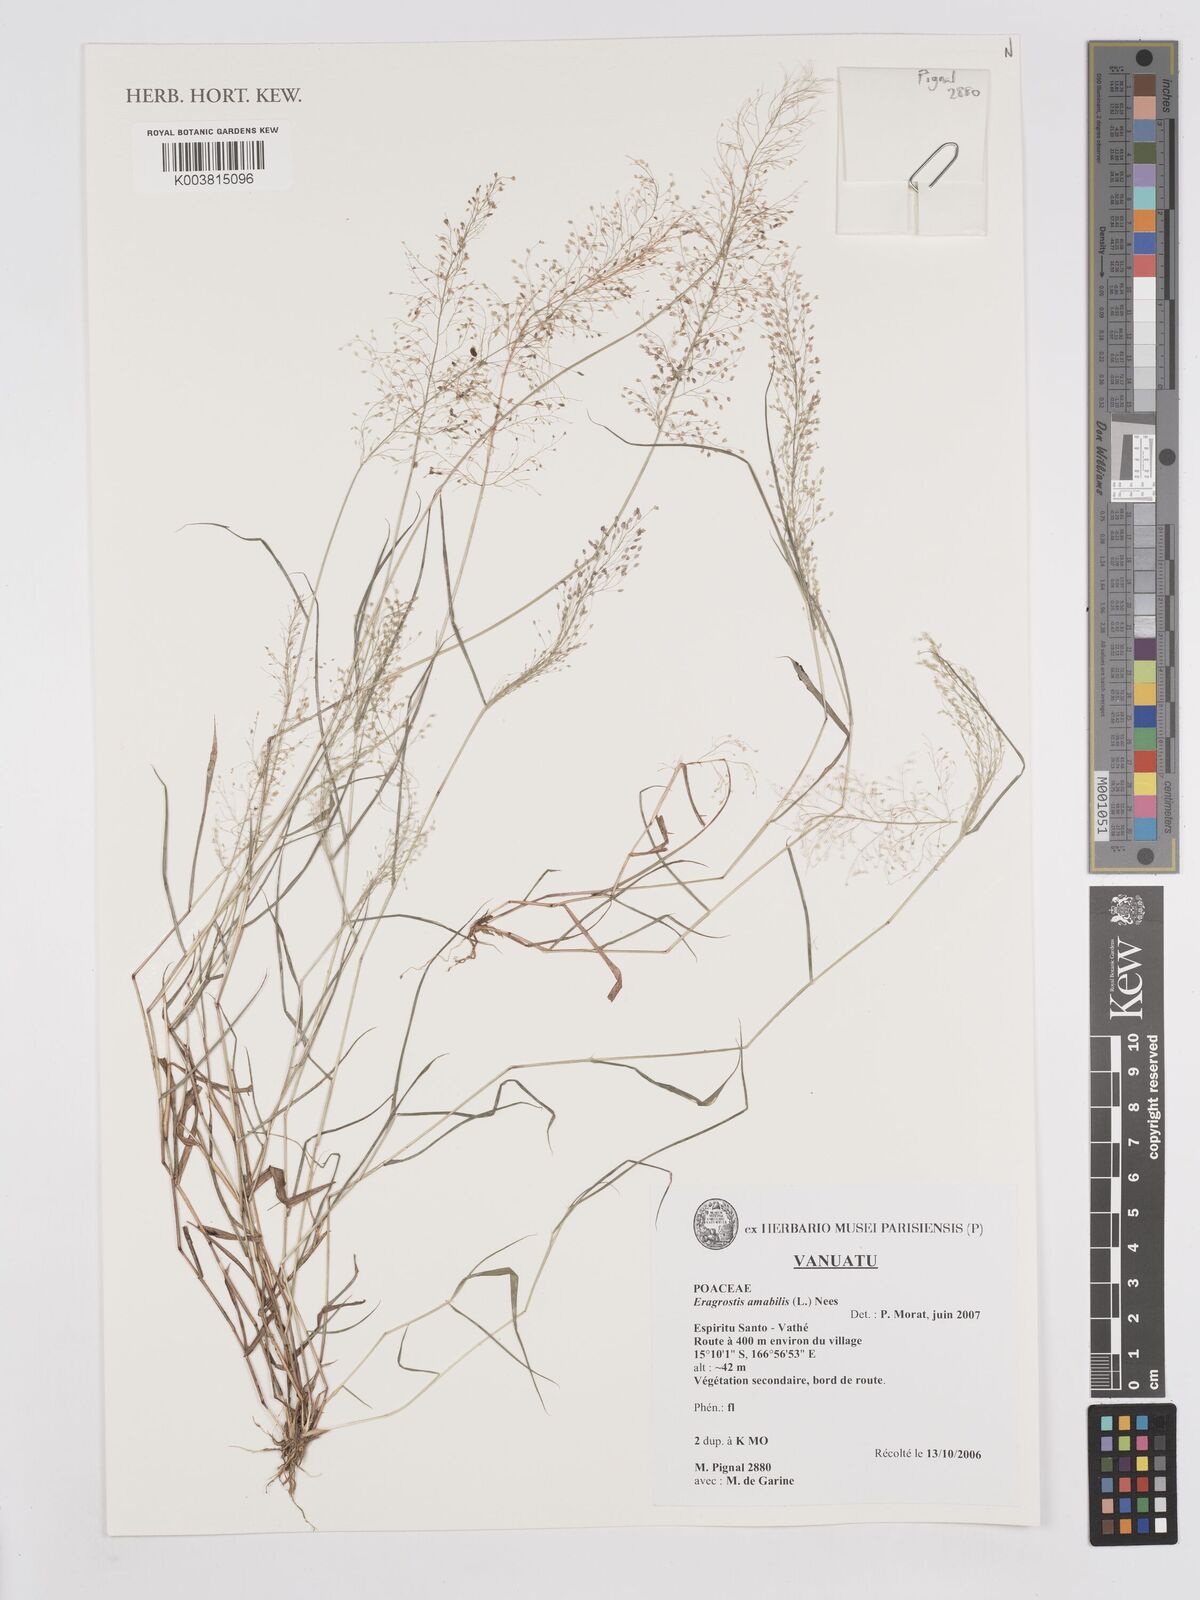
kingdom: Plantae
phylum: Tracheophyta
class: Liliopsida
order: Poales
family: Poaceae
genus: Eragrostis
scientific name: Eragrostis tenella
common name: Japanese lovegrass
